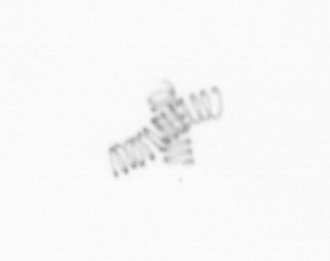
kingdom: Chromista
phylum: Ochrophyta
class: Bacillariophyceae
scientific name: Bacillariophyceae
